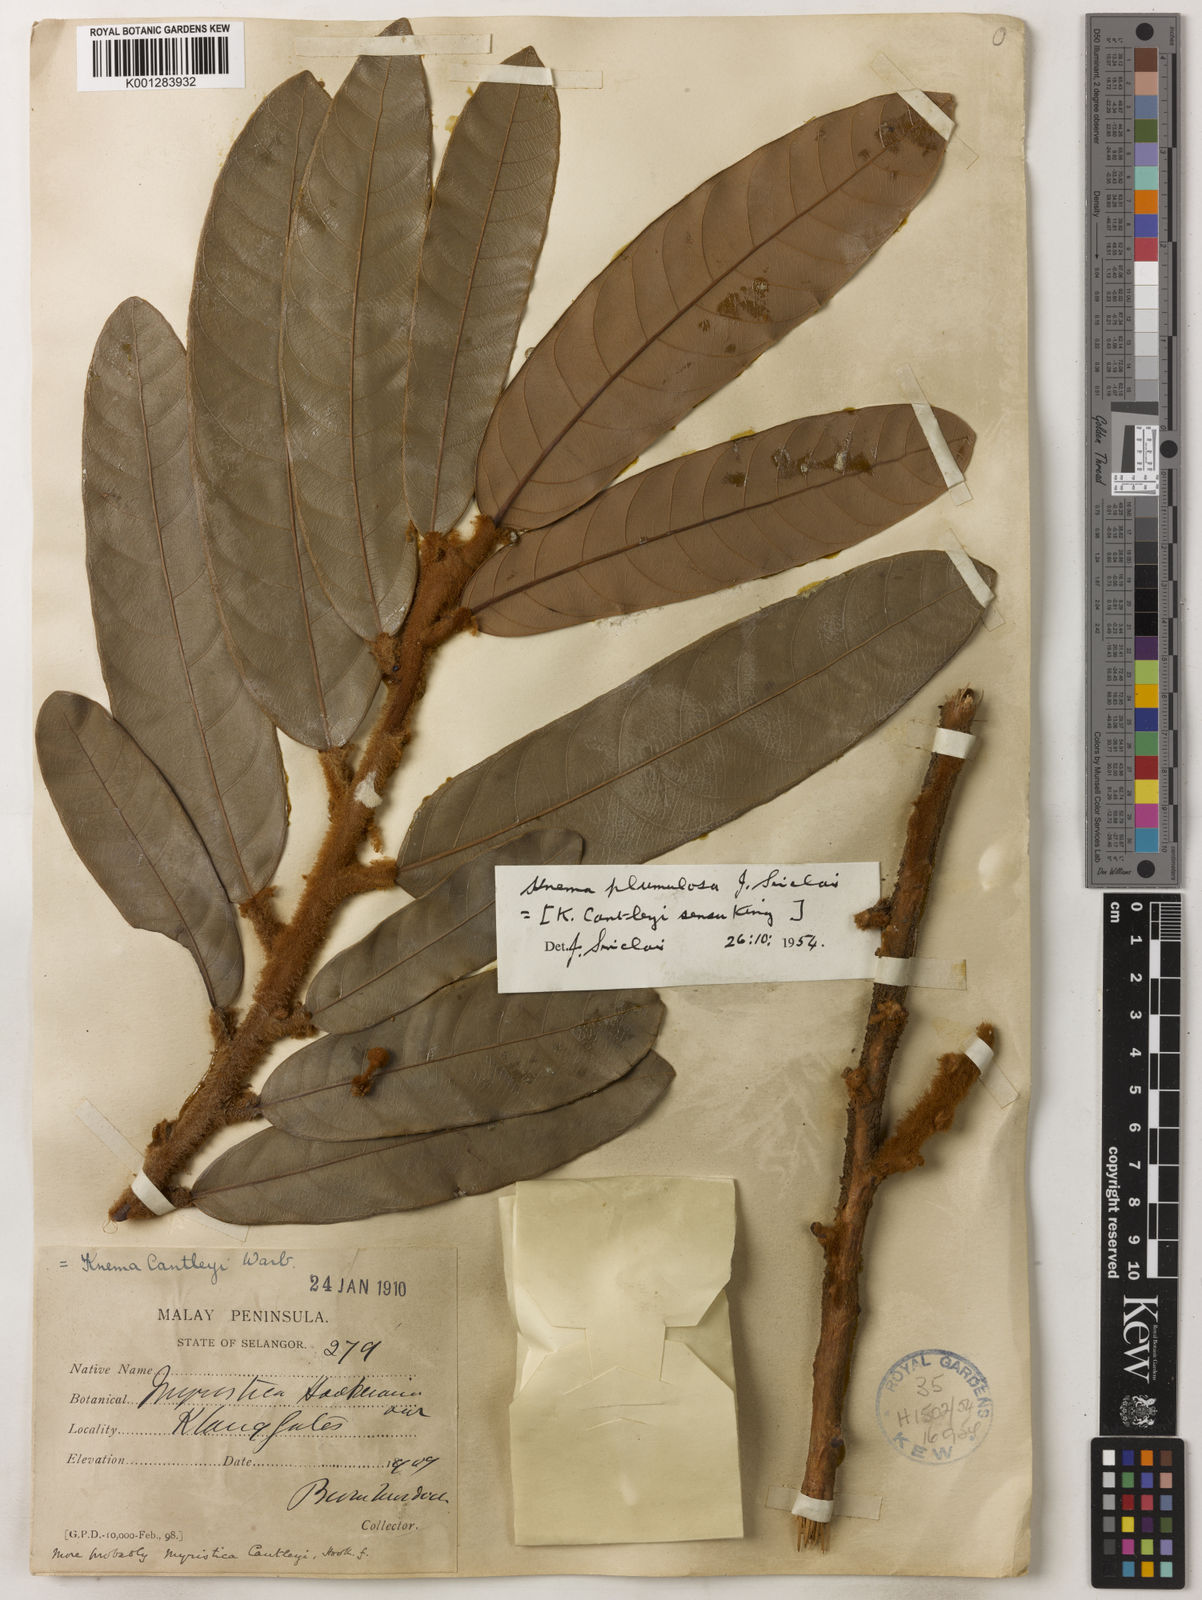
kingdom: Plantae
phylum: Tracheophyta
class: Magnoliopsida
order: Magnoliales
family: Myristicaceae
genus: Knema
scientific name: Knema plumulosa
